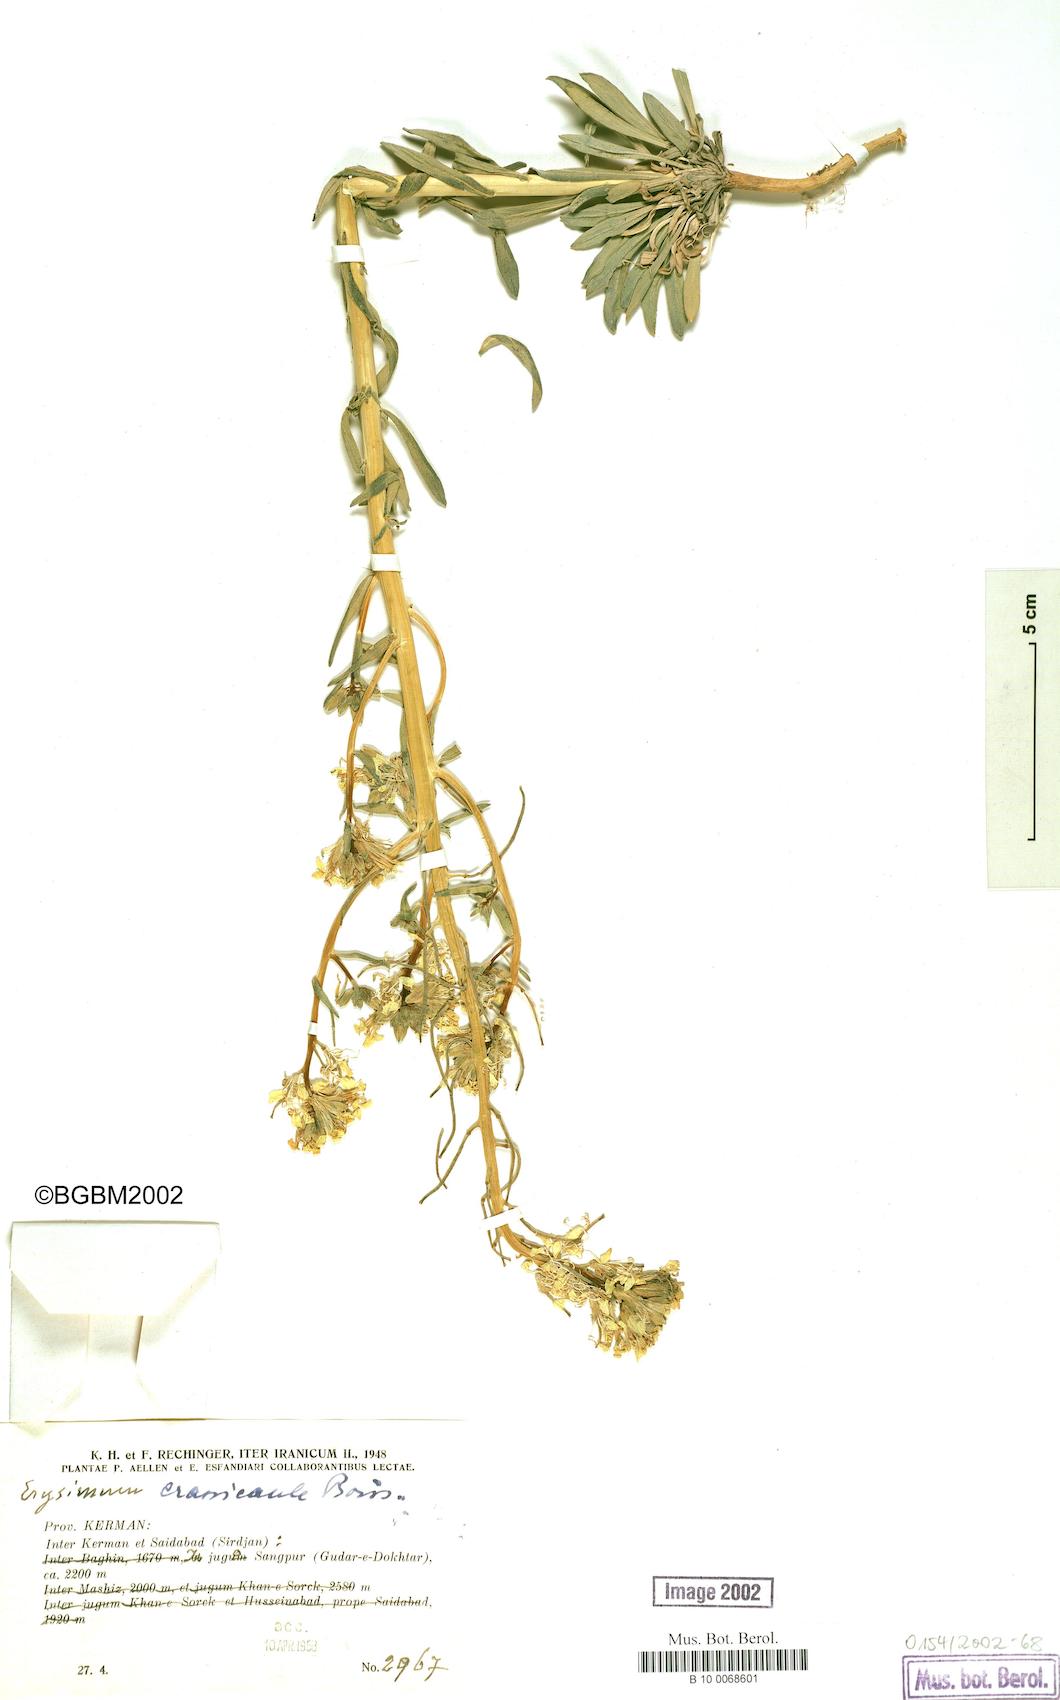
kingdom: Plantae
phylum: Tracheophyta
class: Magnoliopsida
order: Brassicales
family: Brassicaceae
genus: Erysimum
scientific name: Erysimum crassicaule
